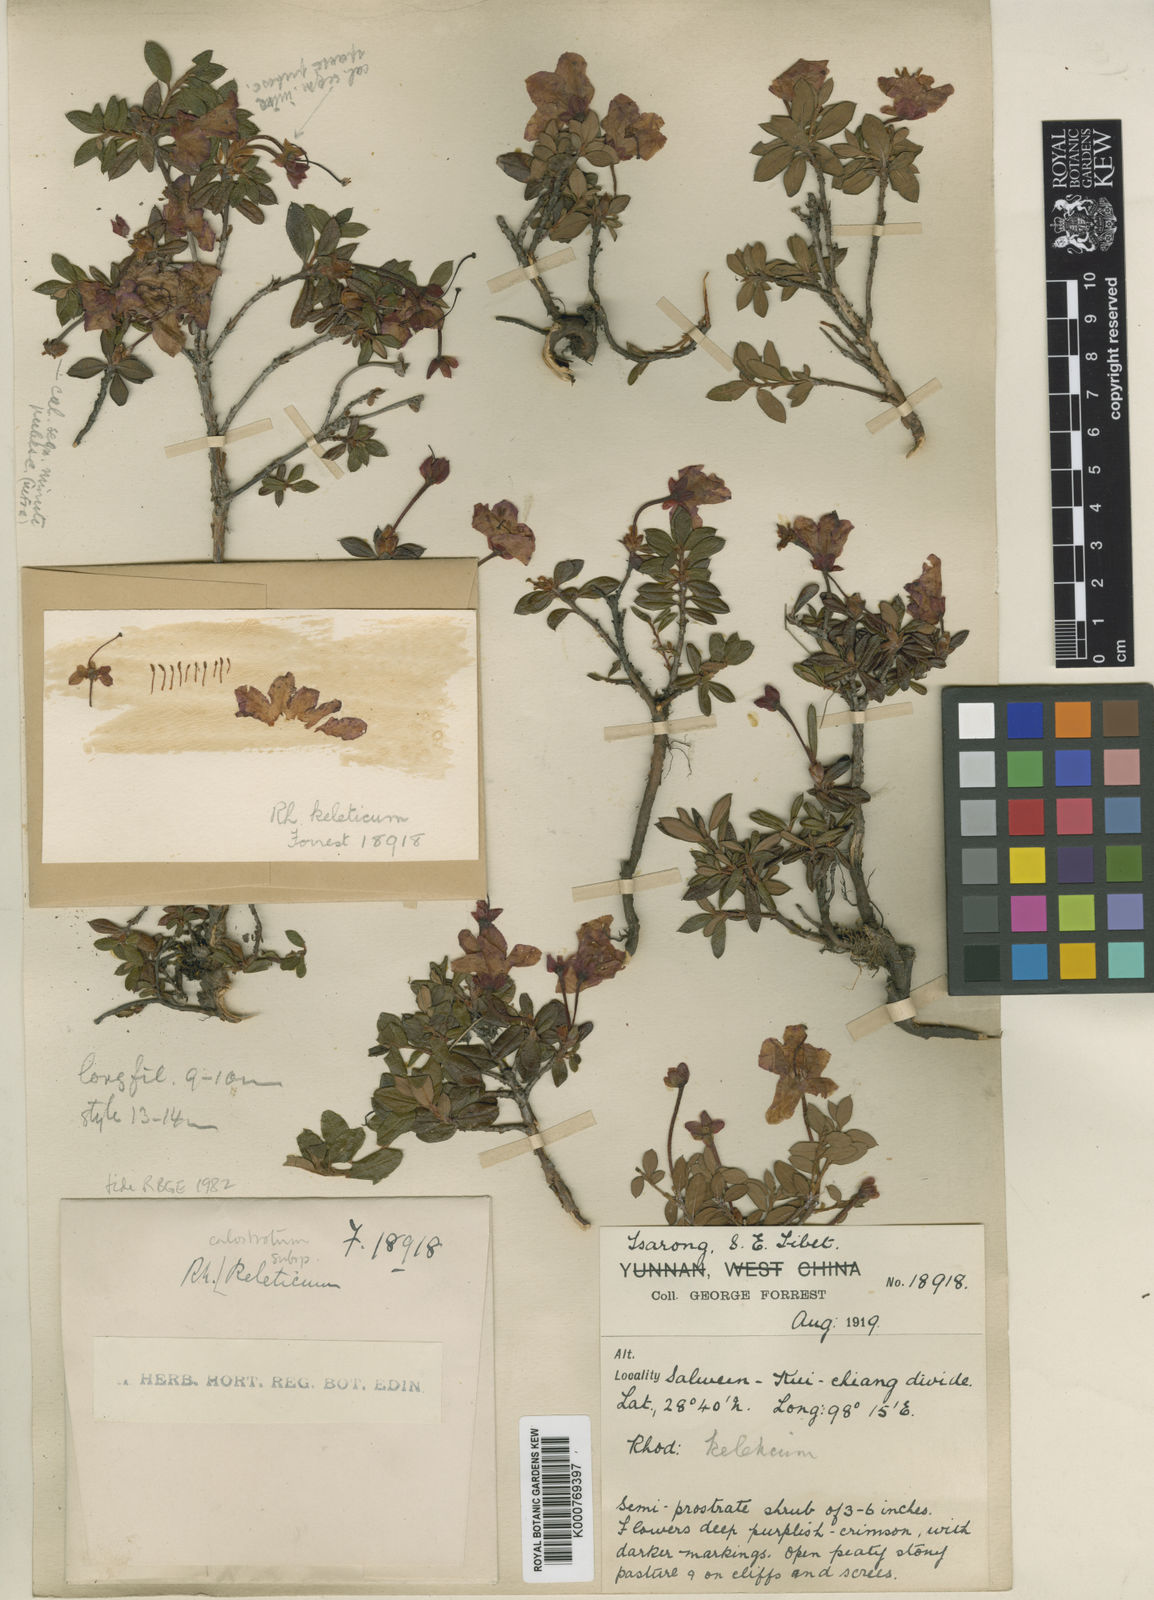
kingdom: Plantae
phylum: Tracheophyta
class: Magnoliopsida
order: Ericales
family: Ericaceae
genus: Rhododendron
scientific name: Rhododendron calostrotum
